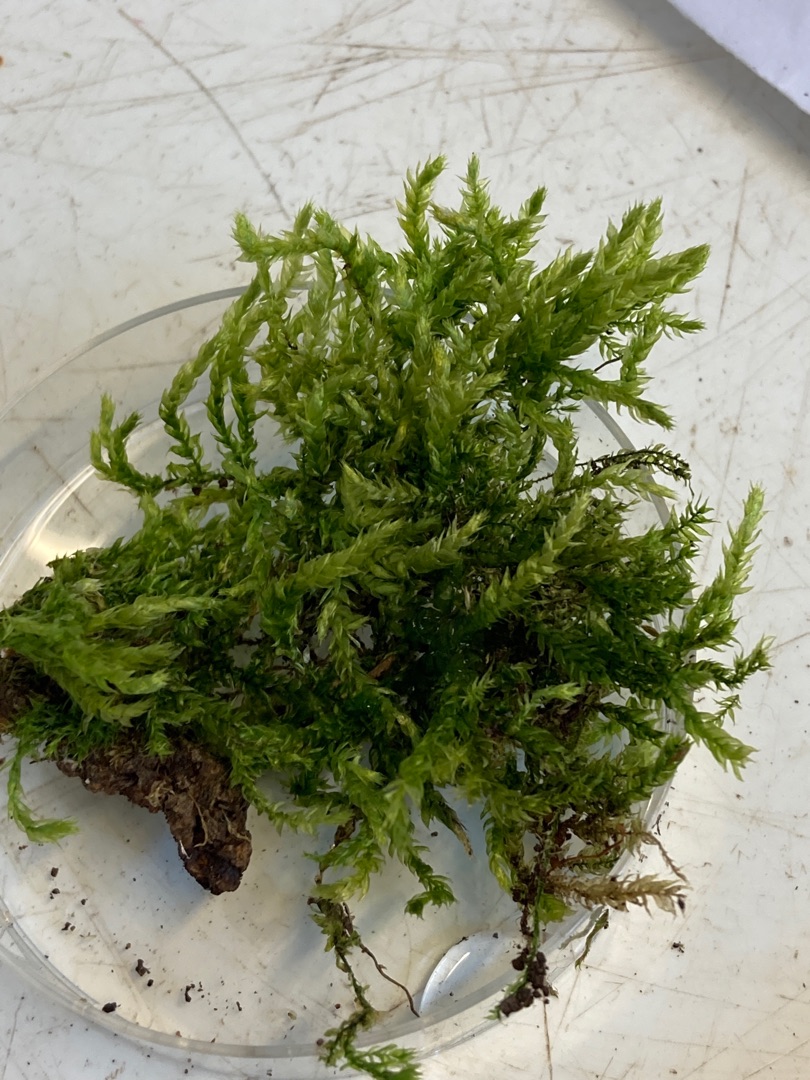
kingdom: Plantae
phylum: Bryophyta
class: Bryopsida
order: Hypnales
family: Brachytheciaceae
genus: Brachythecium
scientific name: Brachythecium rutabulum
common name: Almindelig kortkapsel
